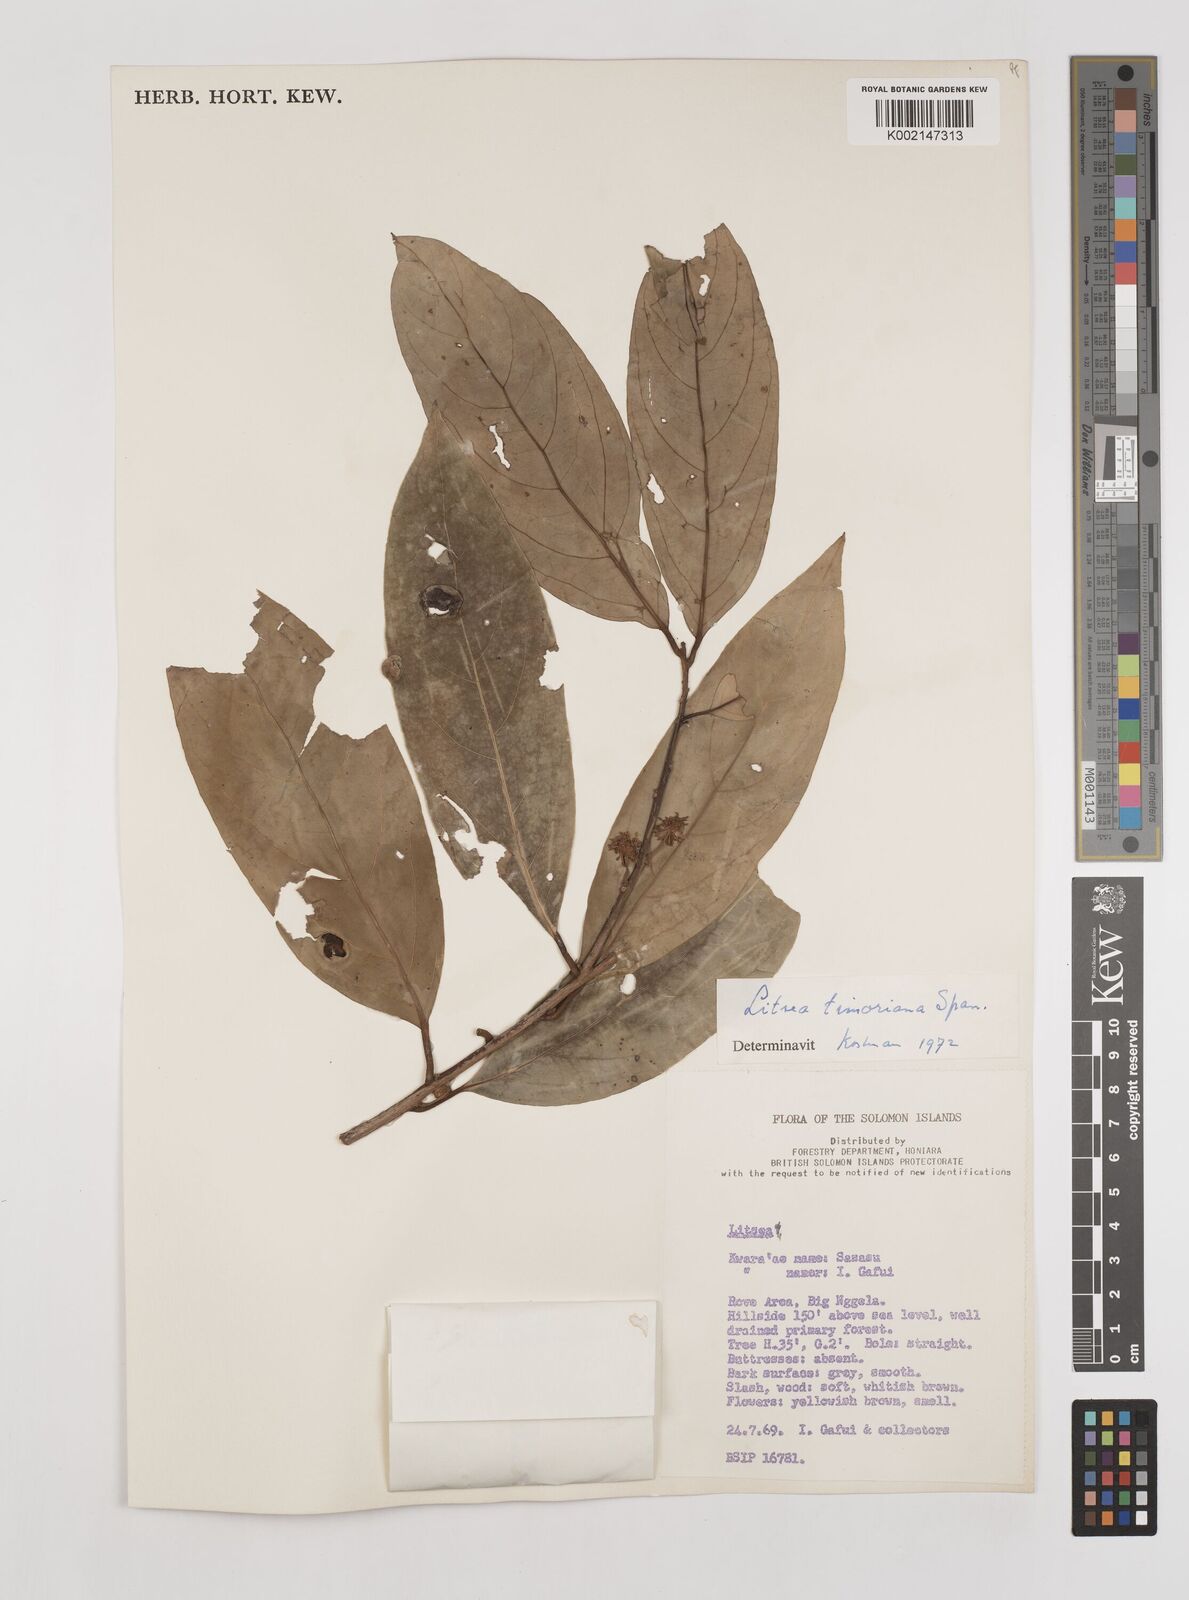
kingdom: Plantae
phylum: Tracheophyta
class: Magnoliopsida
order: Laurales
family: Lauraceae
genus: Litsea
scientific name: Litsea timoriana
